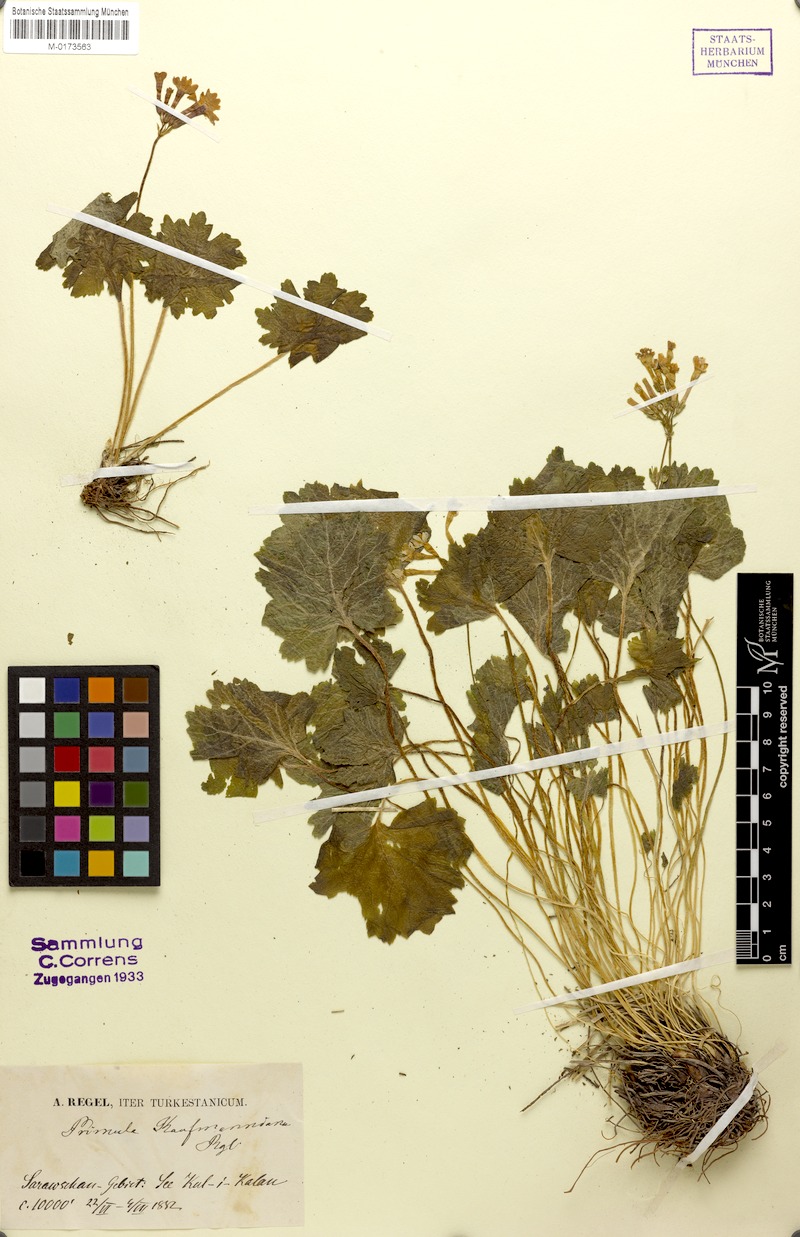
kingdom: Plantae
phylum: Tracheophyta
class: Magnoliopsida
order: Ericales
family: Primulaceae
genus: Primula
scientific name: Primula kaufmanniana
